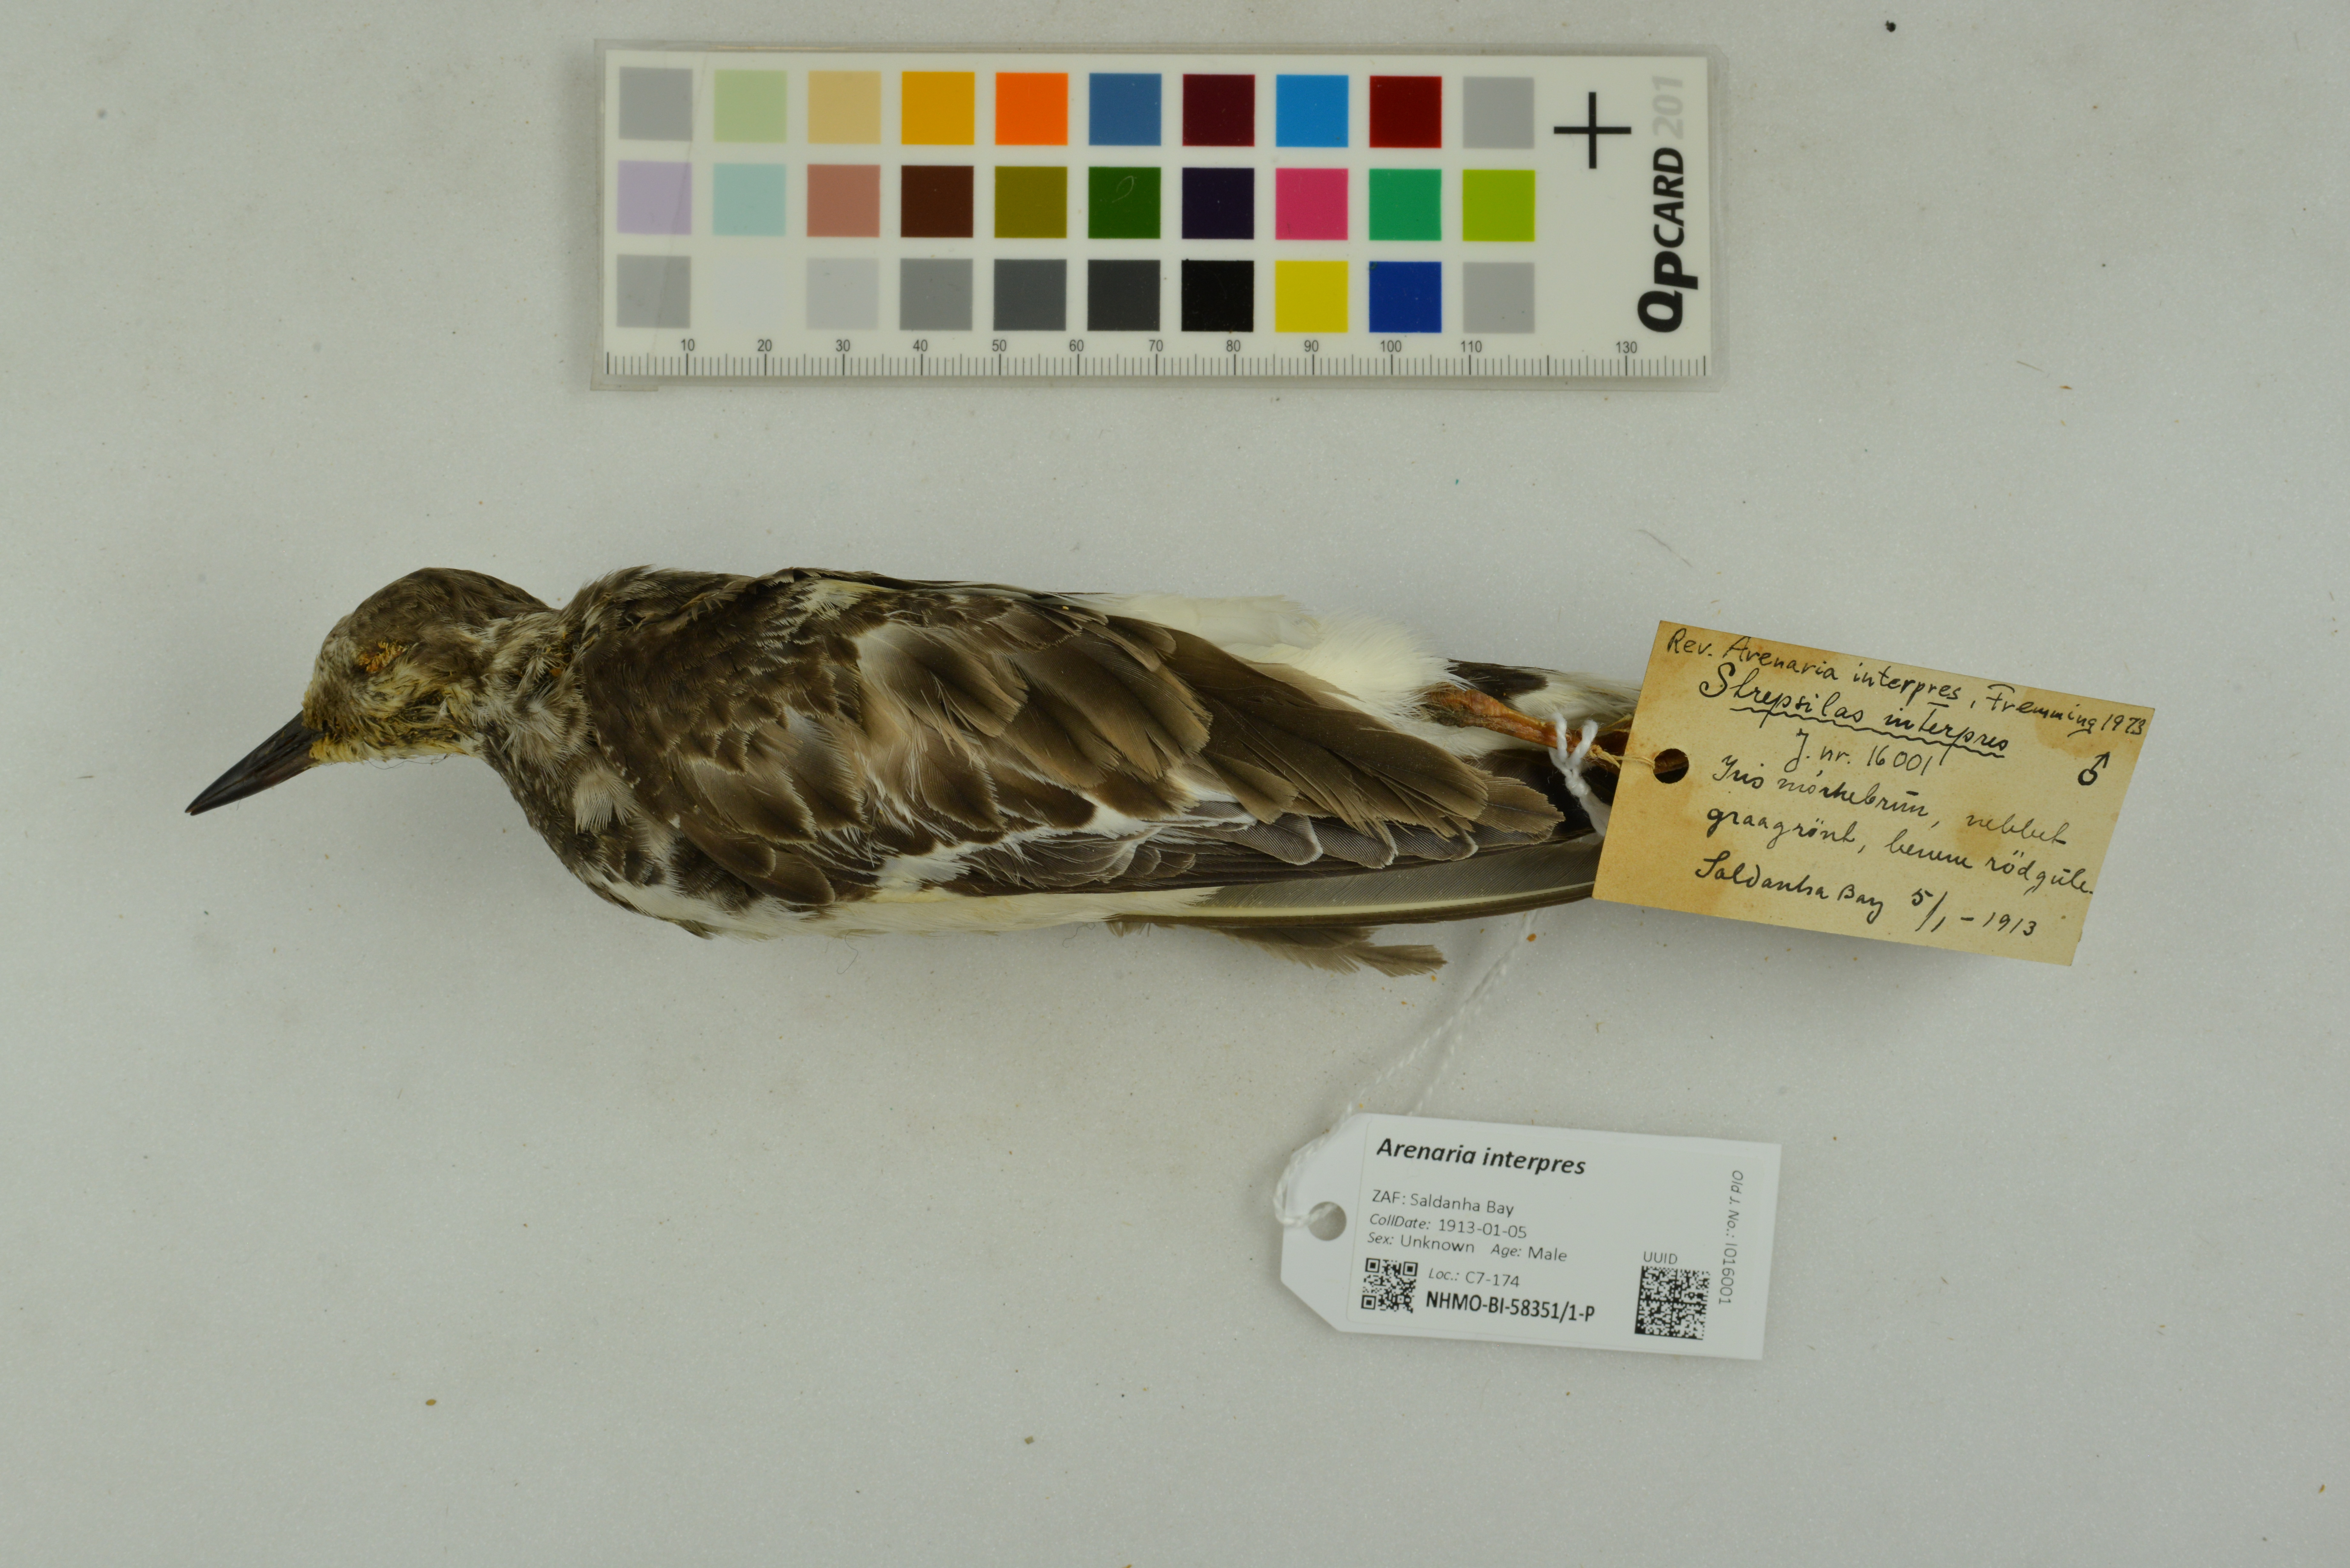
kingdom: Animalia
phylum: Chordata
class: Aves
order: Charadriiformes
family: Scolopacidae
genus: Arenaria
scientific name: Arenaria interpres
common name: Ruddy turnstone
